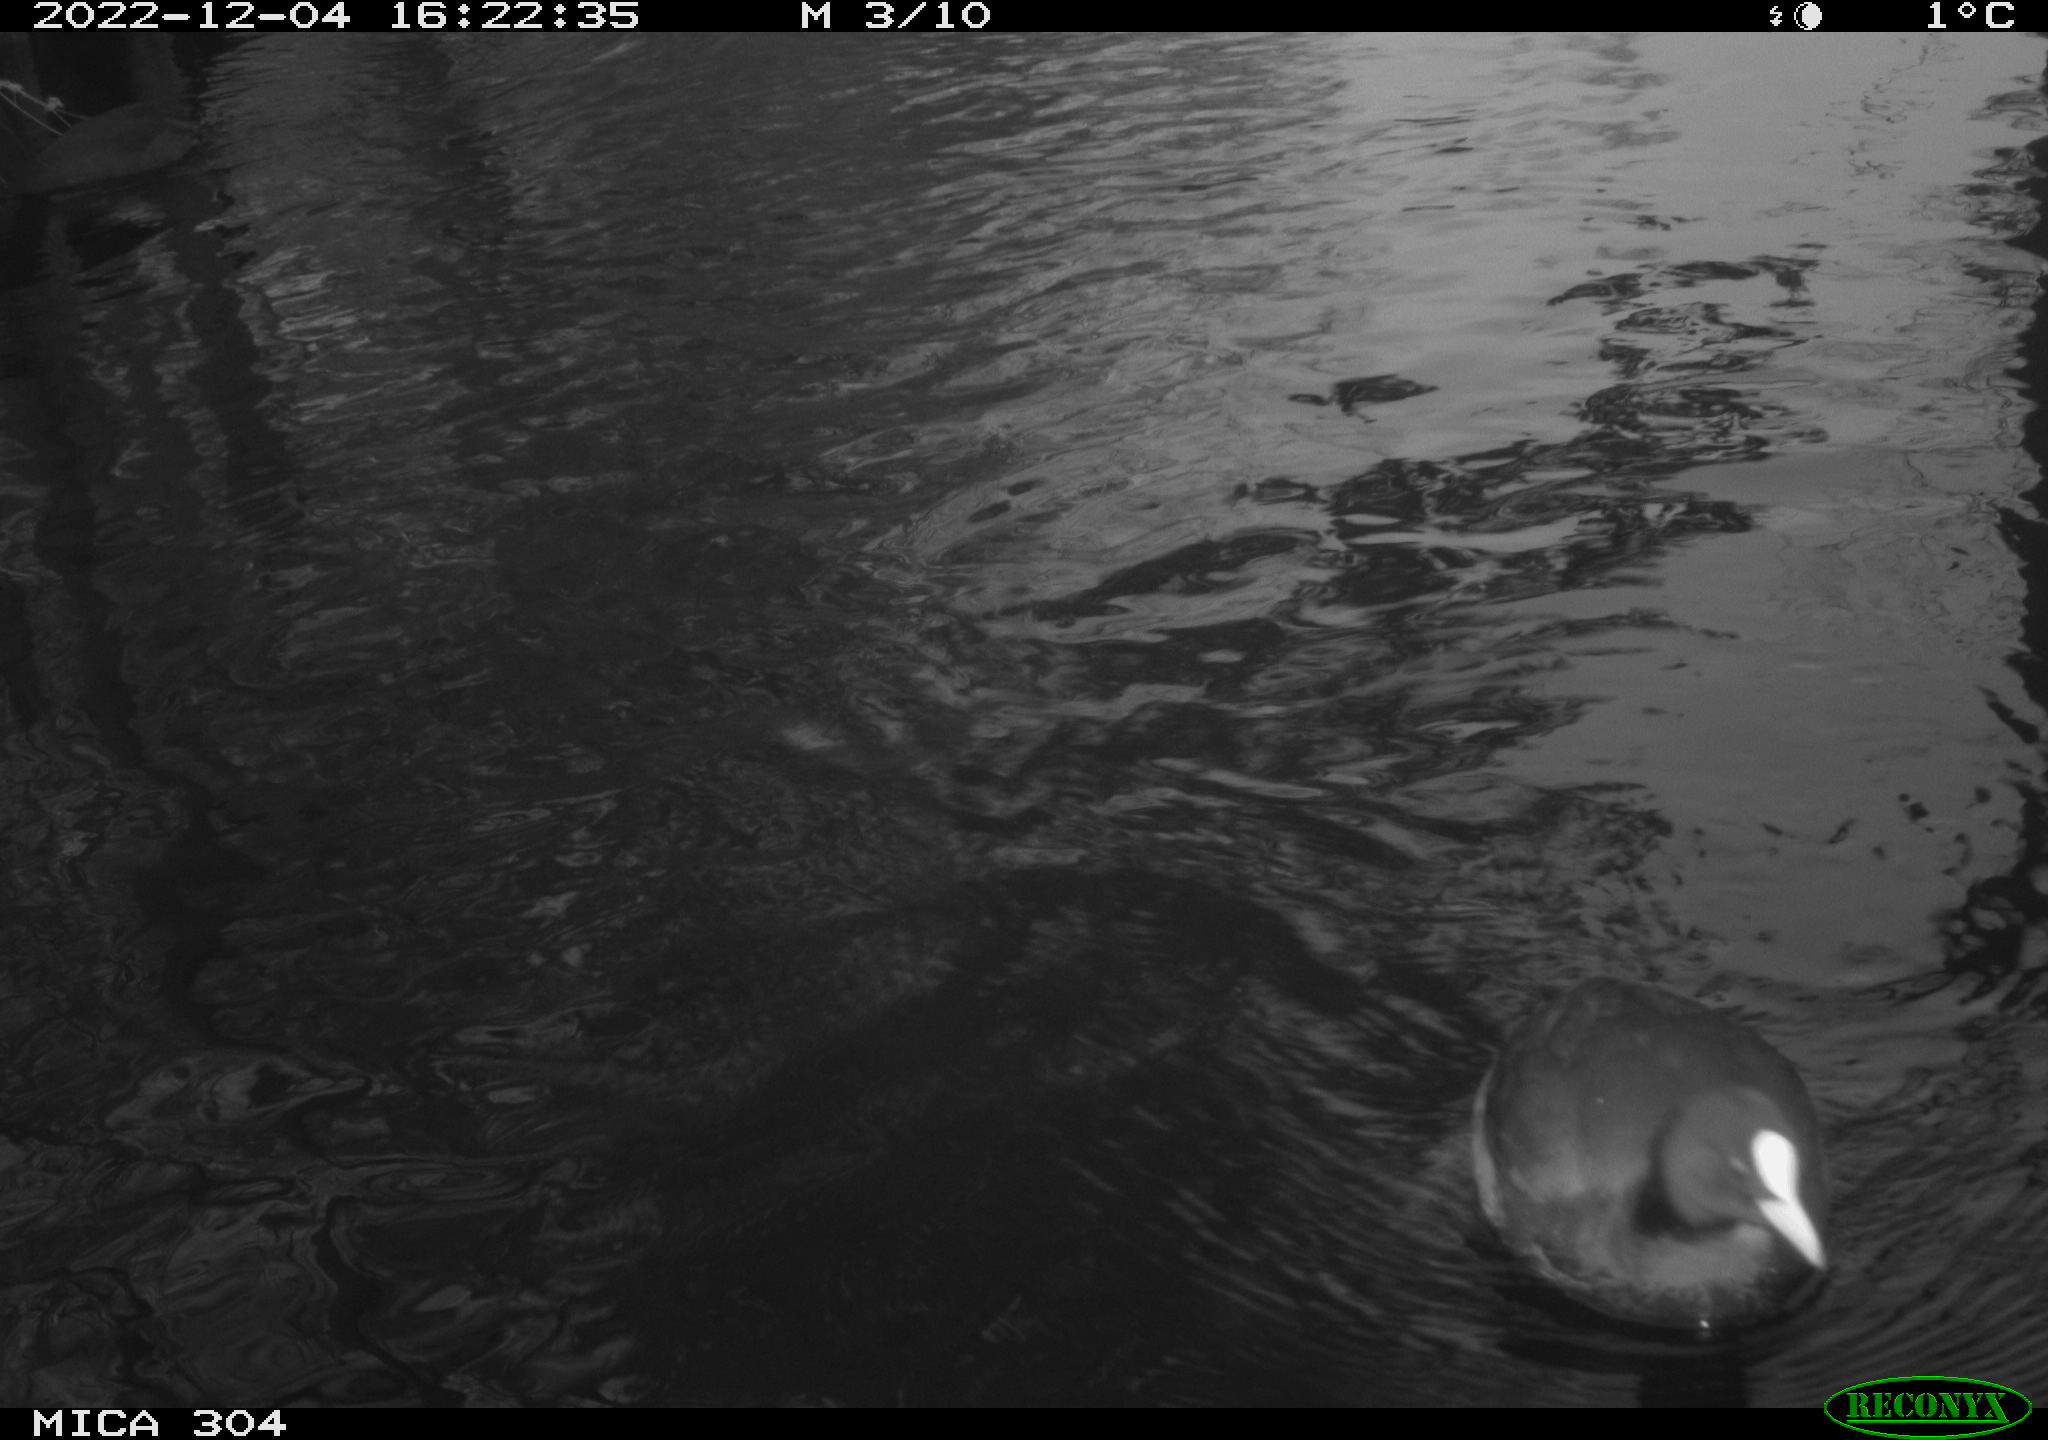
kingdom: Animalia
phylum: Chordata
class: Aves
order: Gruiformes
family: Rallidae
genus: Fulica
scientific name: Fulica atra
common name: Eurasian coot
